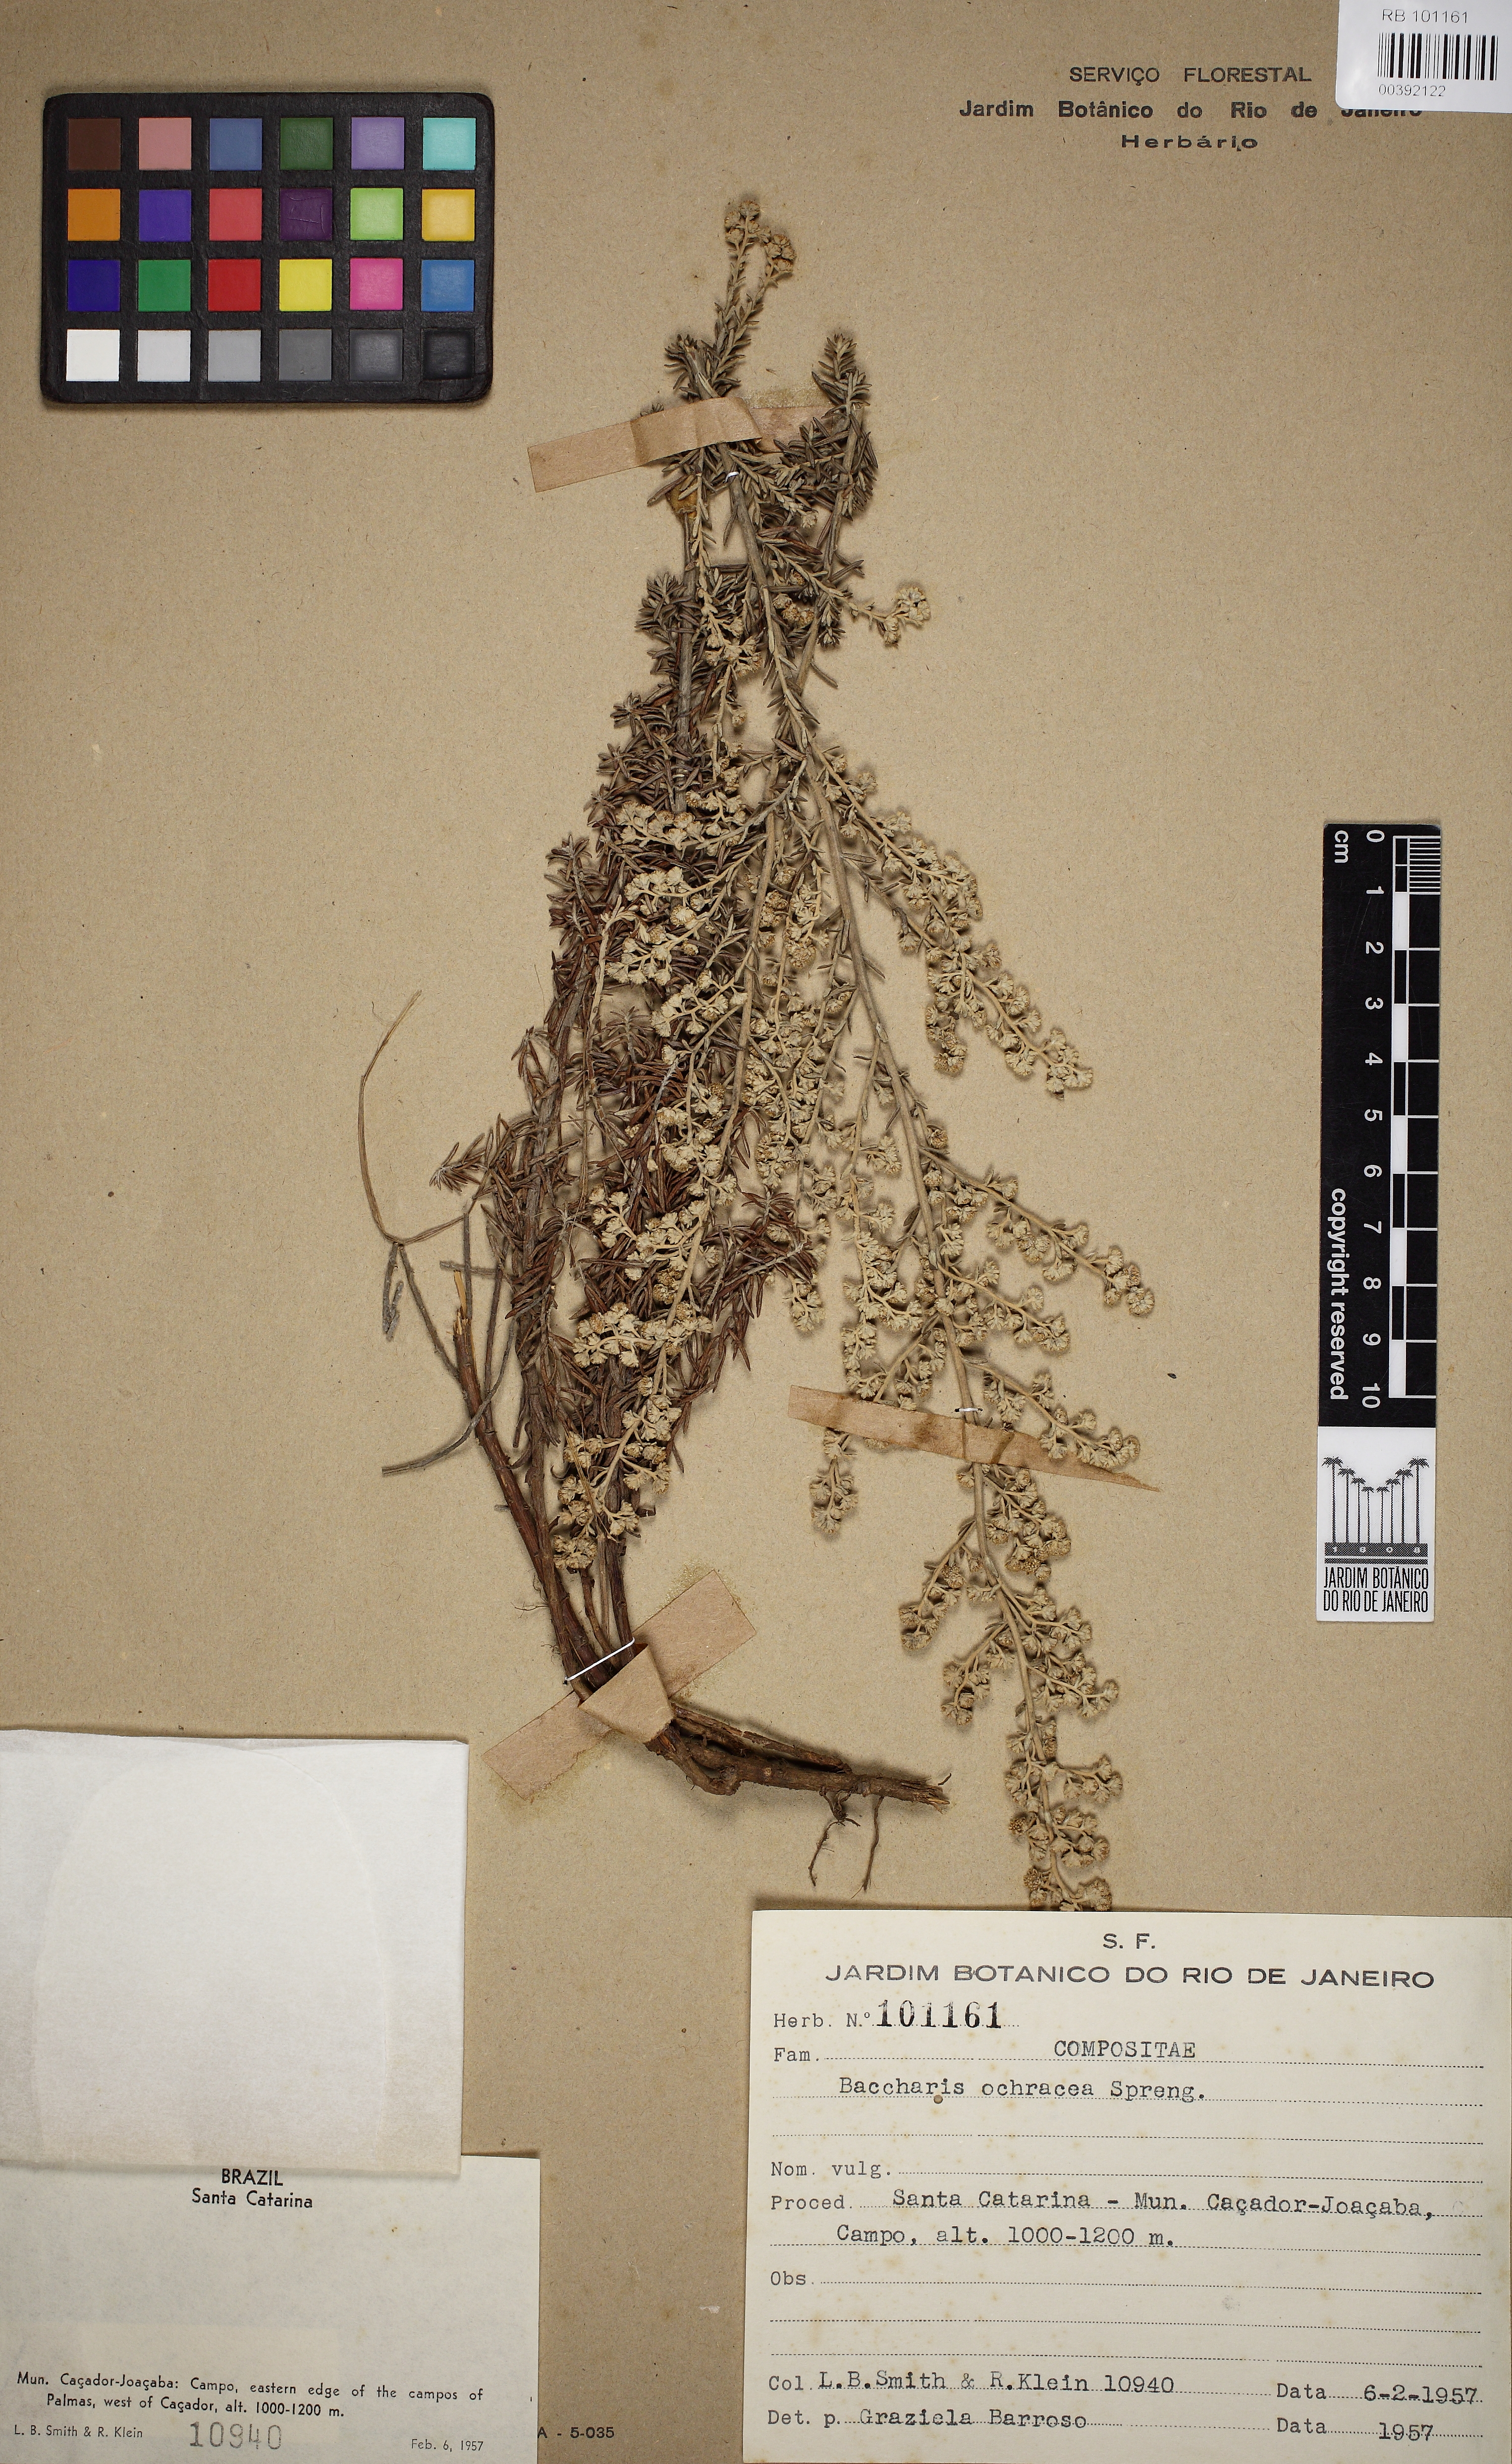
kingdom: Plantae
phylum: Tracheophyta
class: Magnoliopsida
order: Asterales
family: Asteraceae
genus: Baccharis
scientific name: Baccharis ochracea
